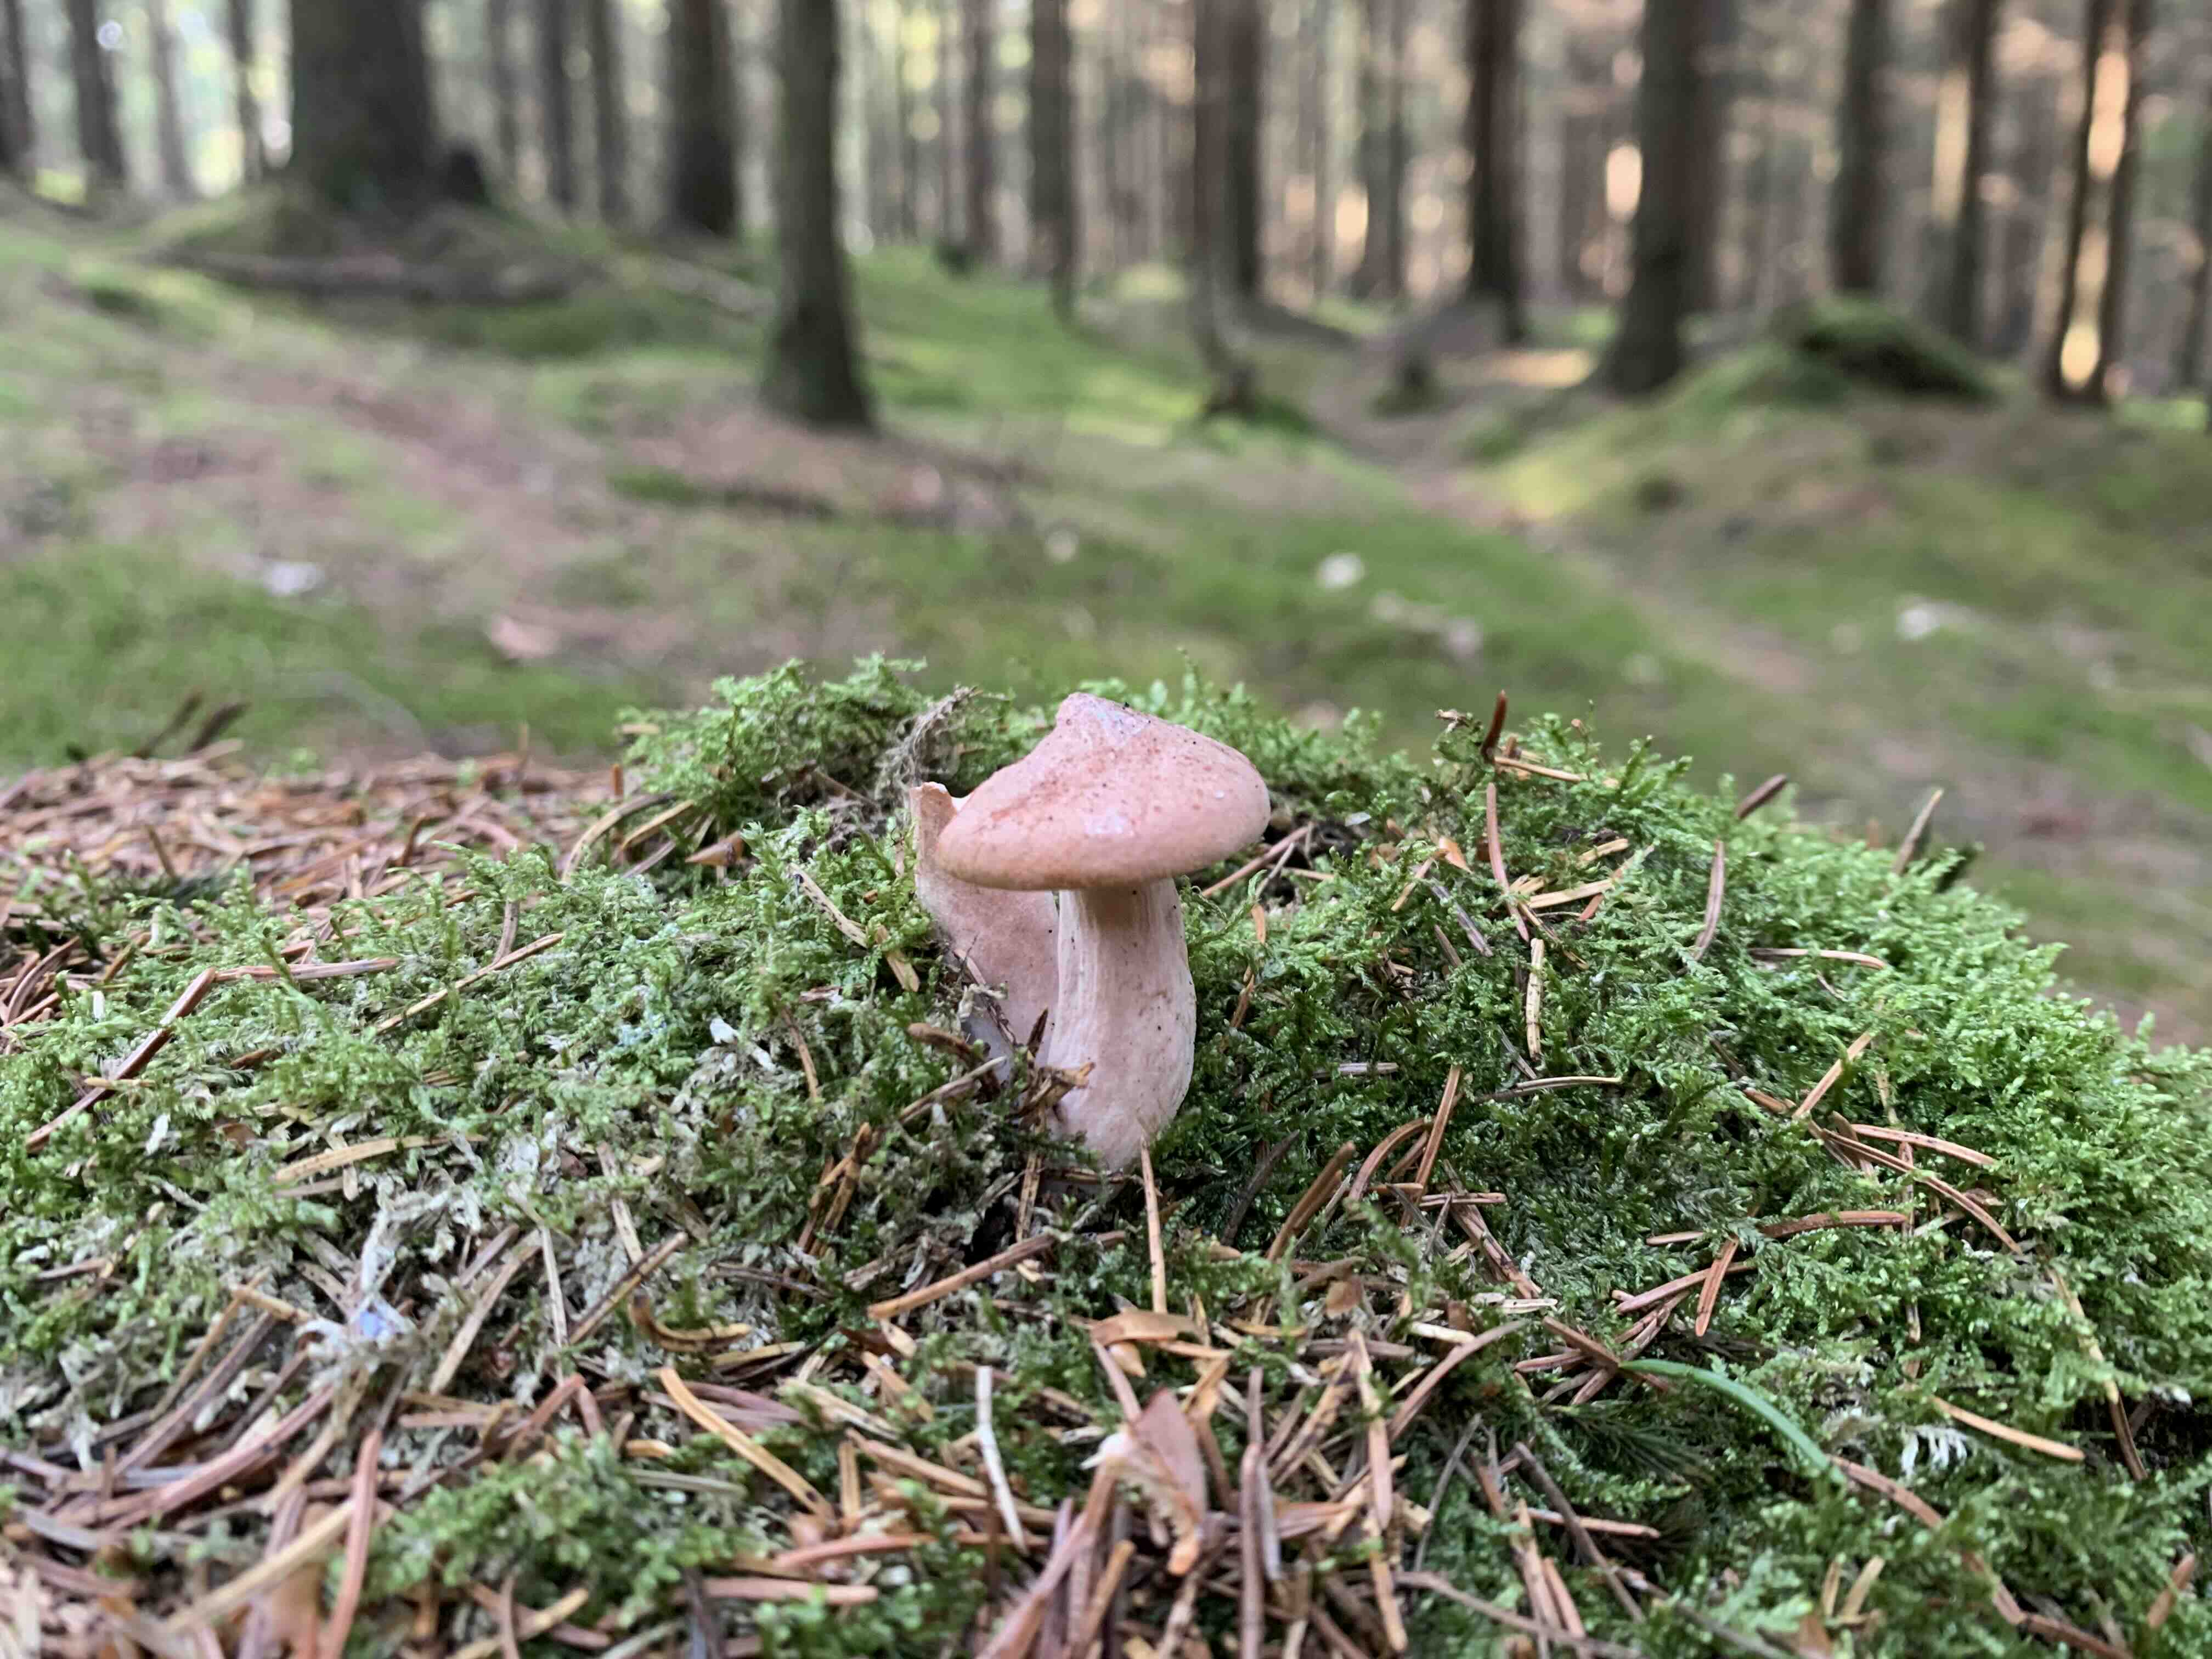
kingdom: Fungi
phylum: Basidiomycota
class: Agaricomycetes
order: Russulales
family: Russulaceae
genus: Lactarius
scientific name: Lactarius rufus
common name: rødbrun mælkehat
